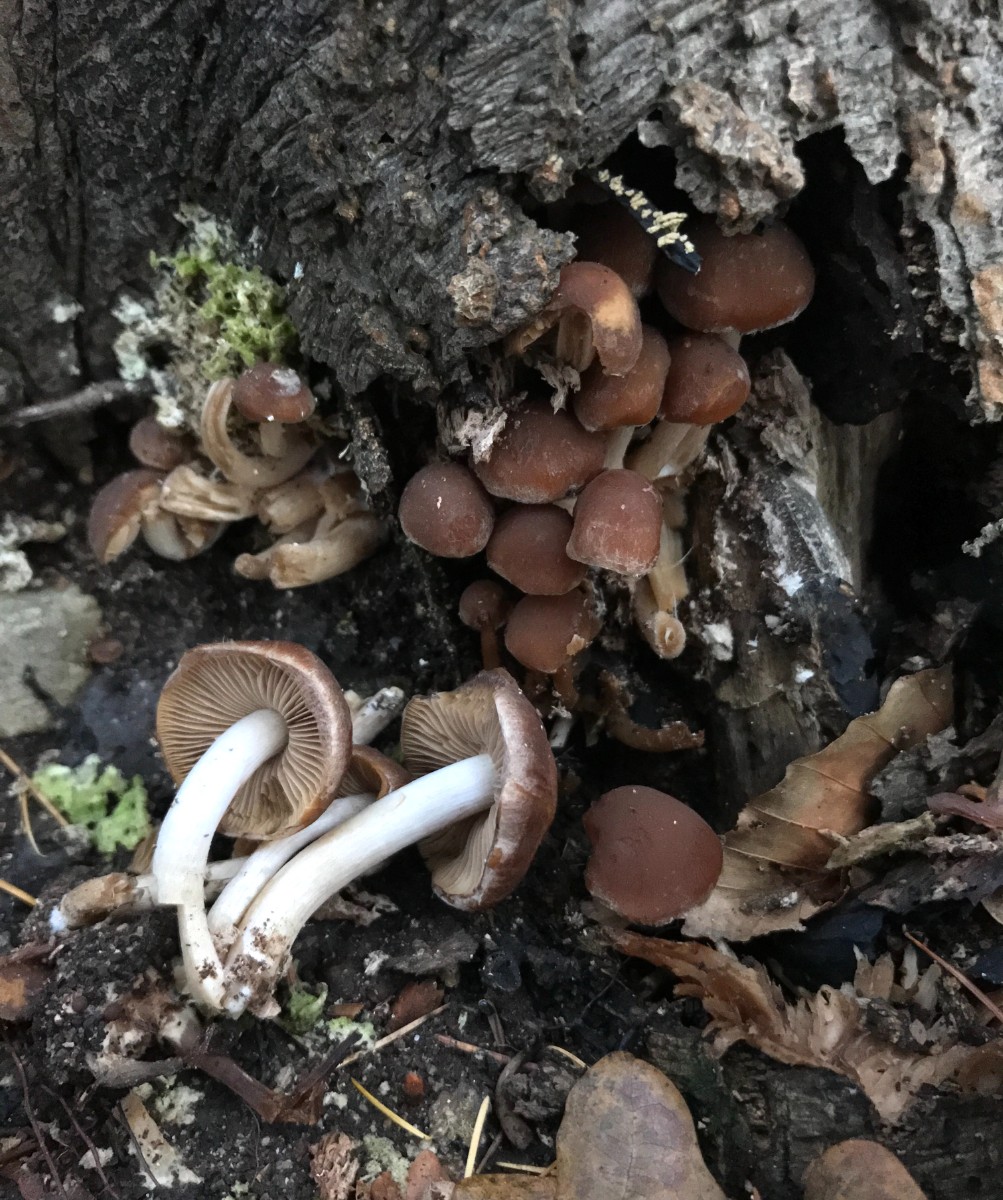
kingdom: Fungi
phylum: Basidiomycota
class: Agaricomycetes
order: Agaricales
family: Psathyrellaceae
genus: Psathyrella
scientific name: Psathyrella piluliformis
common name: lysstokket mørkhat
